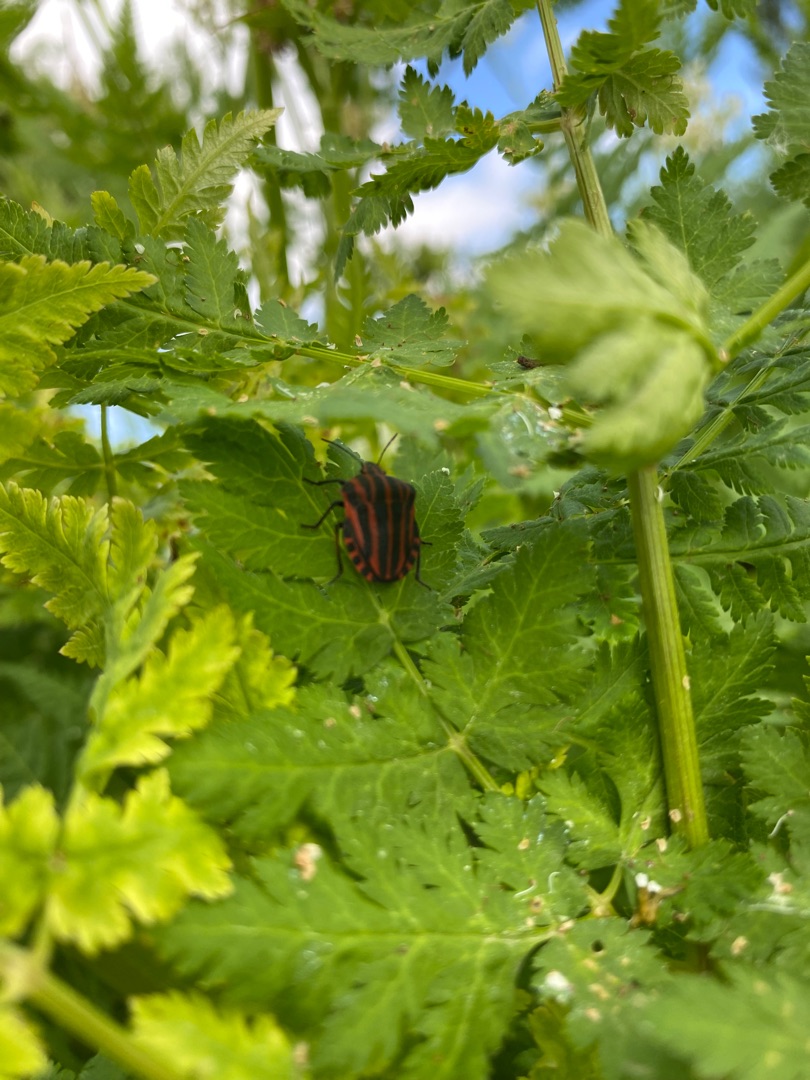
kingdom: Animalia
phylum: Arthropoda
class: Insecta
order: Hemiptera
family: Pentatomidae
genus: Graphosoma
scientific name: Graphosoma italicum
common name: Stribetæge
